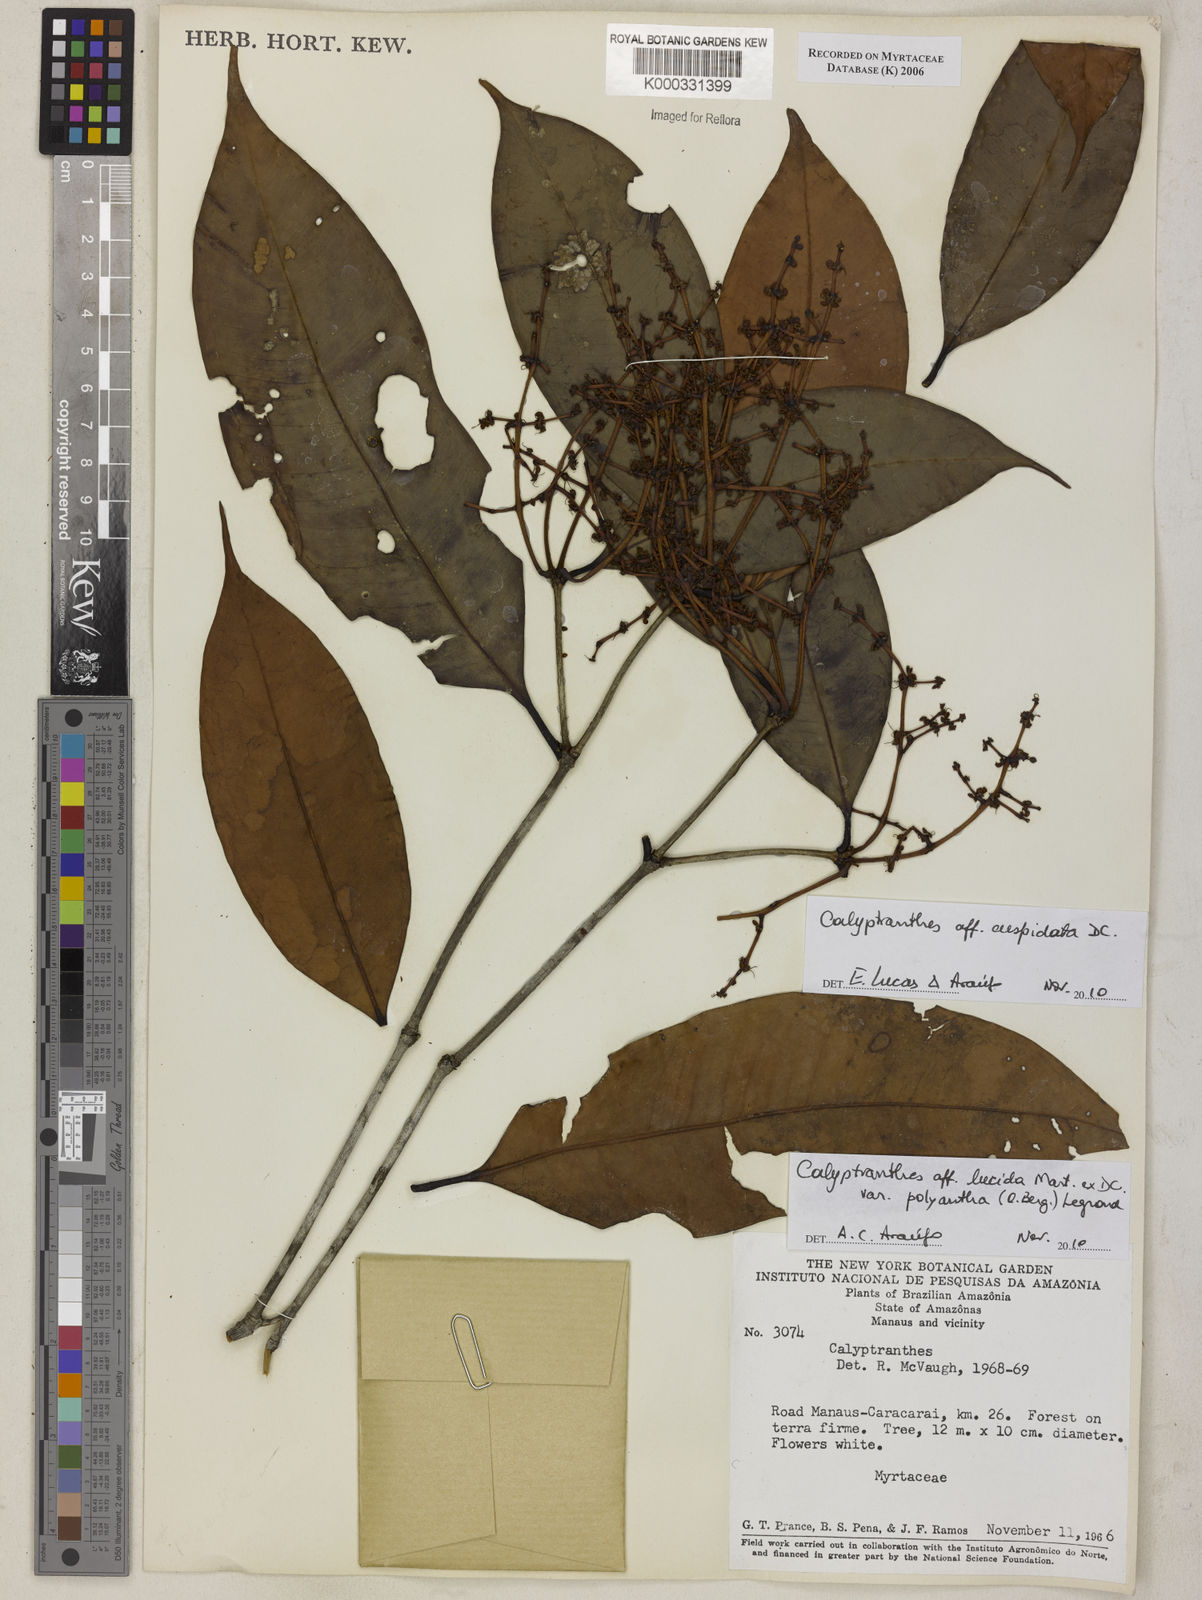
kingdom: Plantae
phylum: Tracheophyta
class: Magnoliopsida
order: Myrtales
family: Myrtaceae
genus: Calyptranthes
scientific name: Calyptranthes
